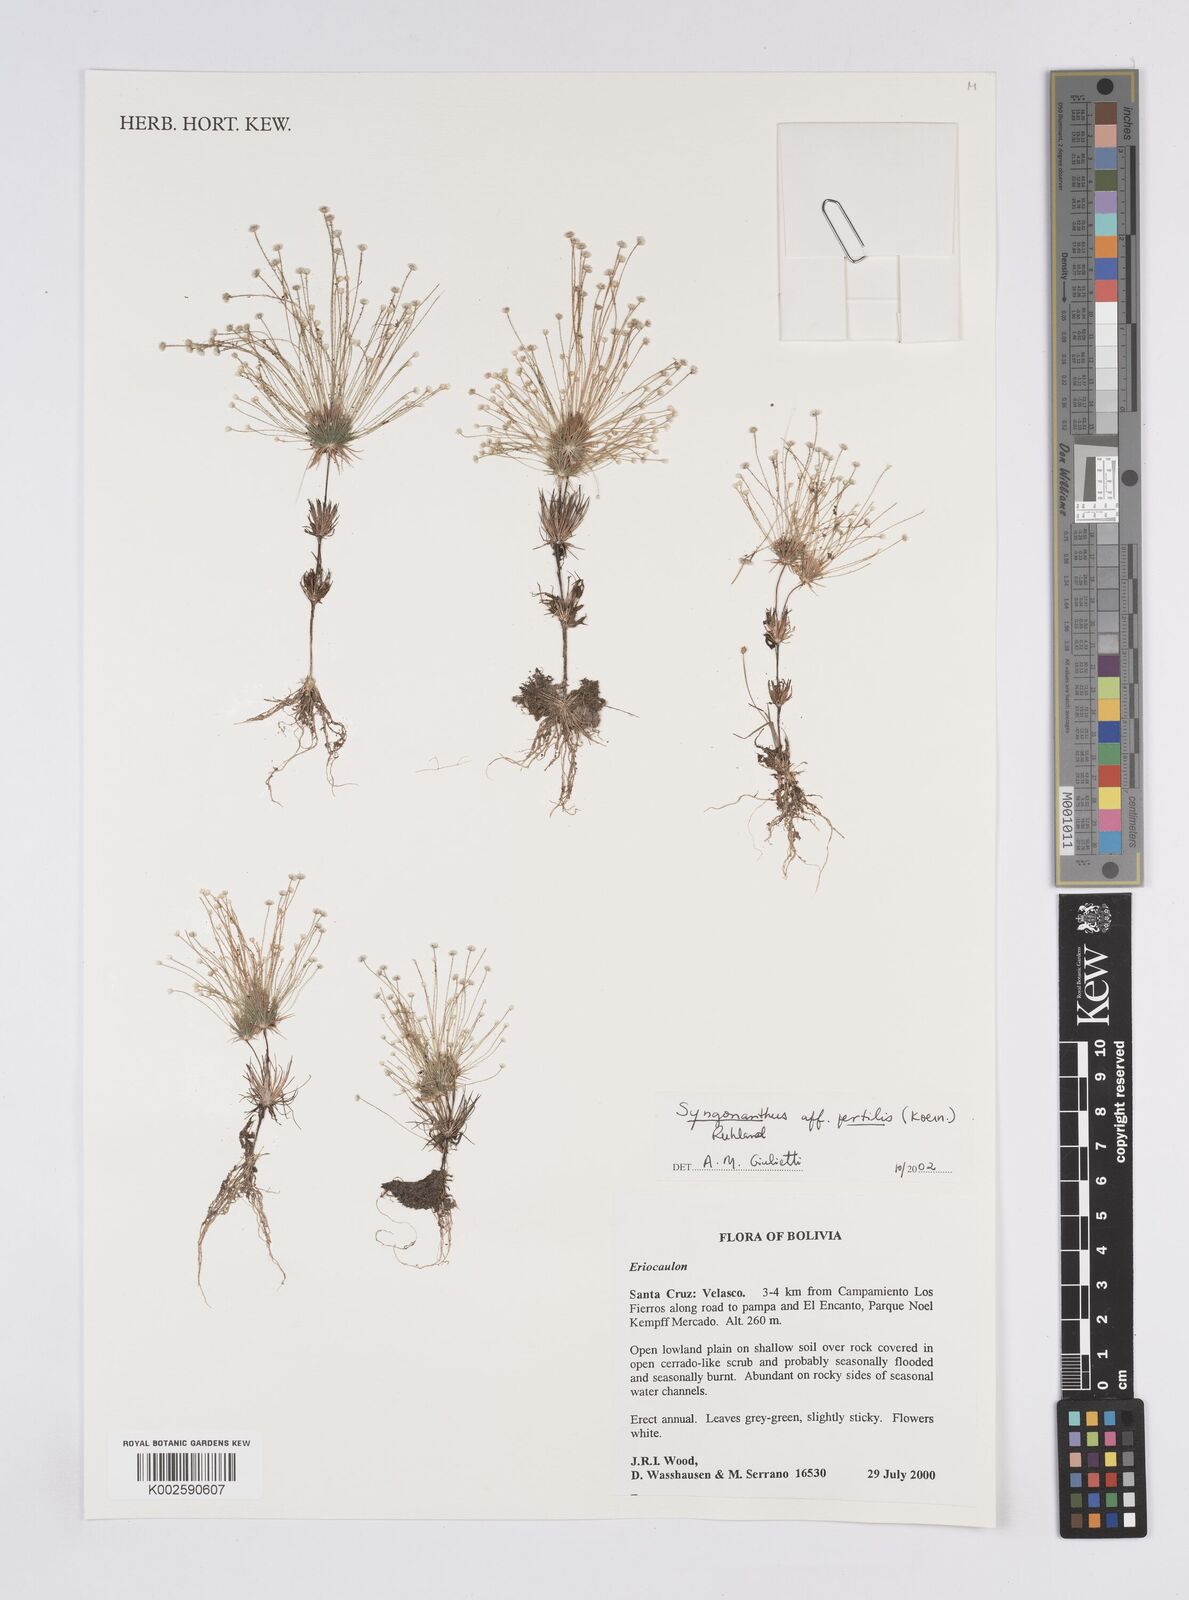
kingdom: Plantae
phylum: Tracheophyta
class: Liliopsida
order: Poales
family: Eriocaulaceae
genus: Syngonanthus
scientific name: Syngonanthus humboldtii
